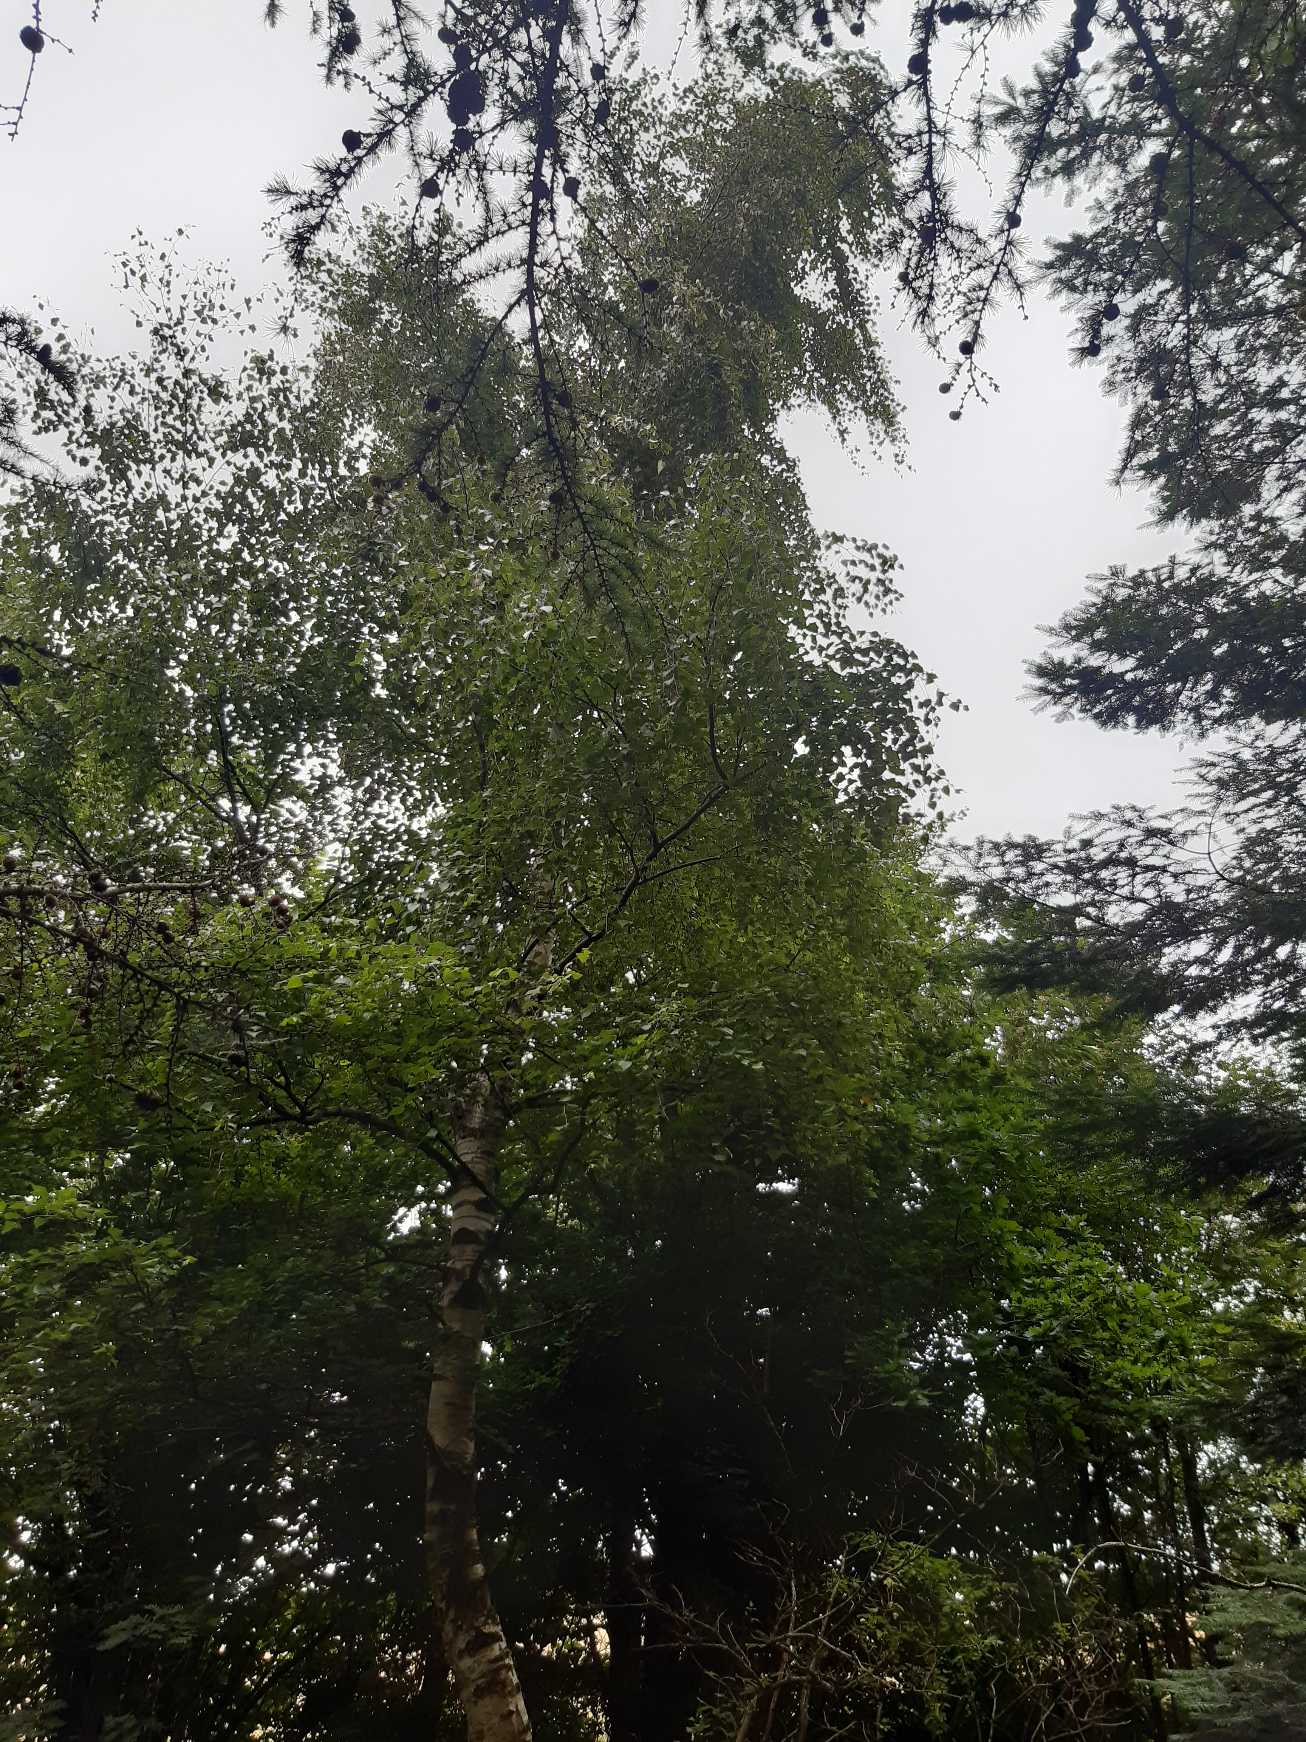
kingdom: Plantae
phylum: Tracheophyta
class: Magnoliopsida
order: Fagales
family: Betulaceae
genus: Betula
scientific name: Betula pendula
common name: Vorte-birk
